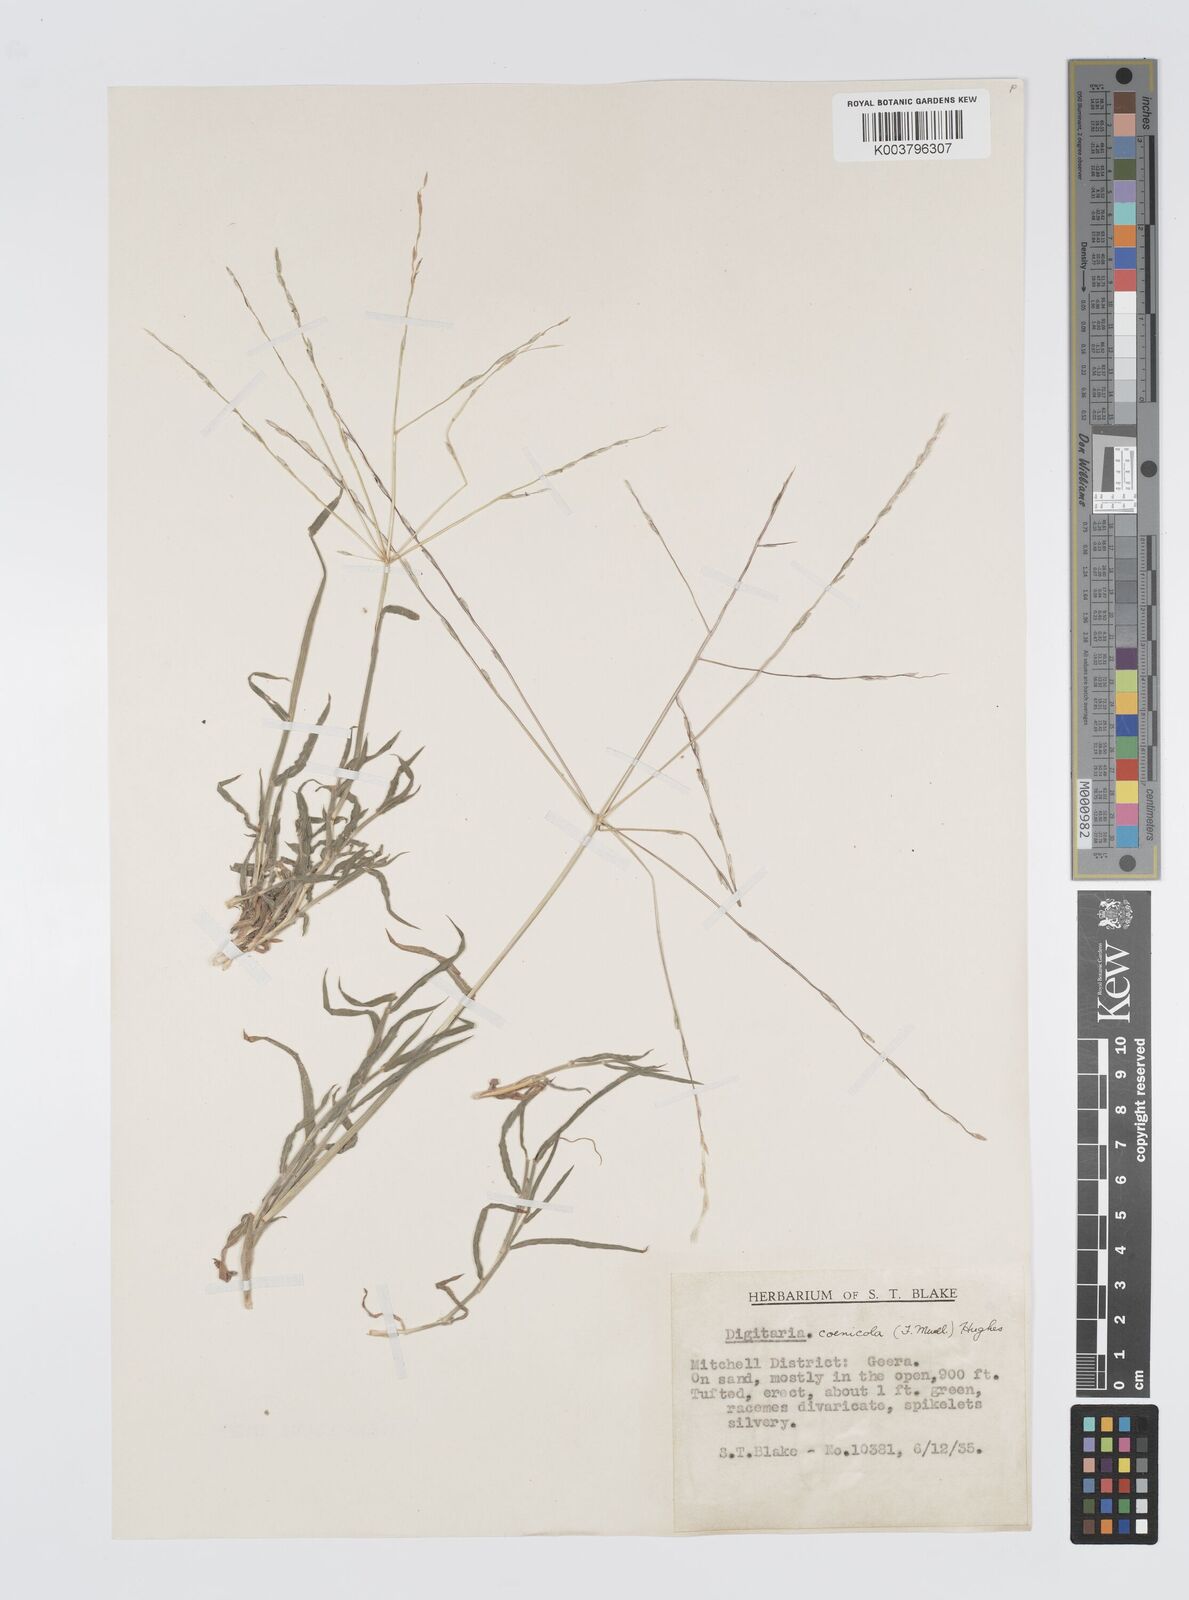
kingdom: Plantae
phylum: Tracheophyta
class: Liliopsida
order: Poales
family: Poaceae
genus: Digitaria
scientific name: Digitaria coenicola
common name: Kanta grass
